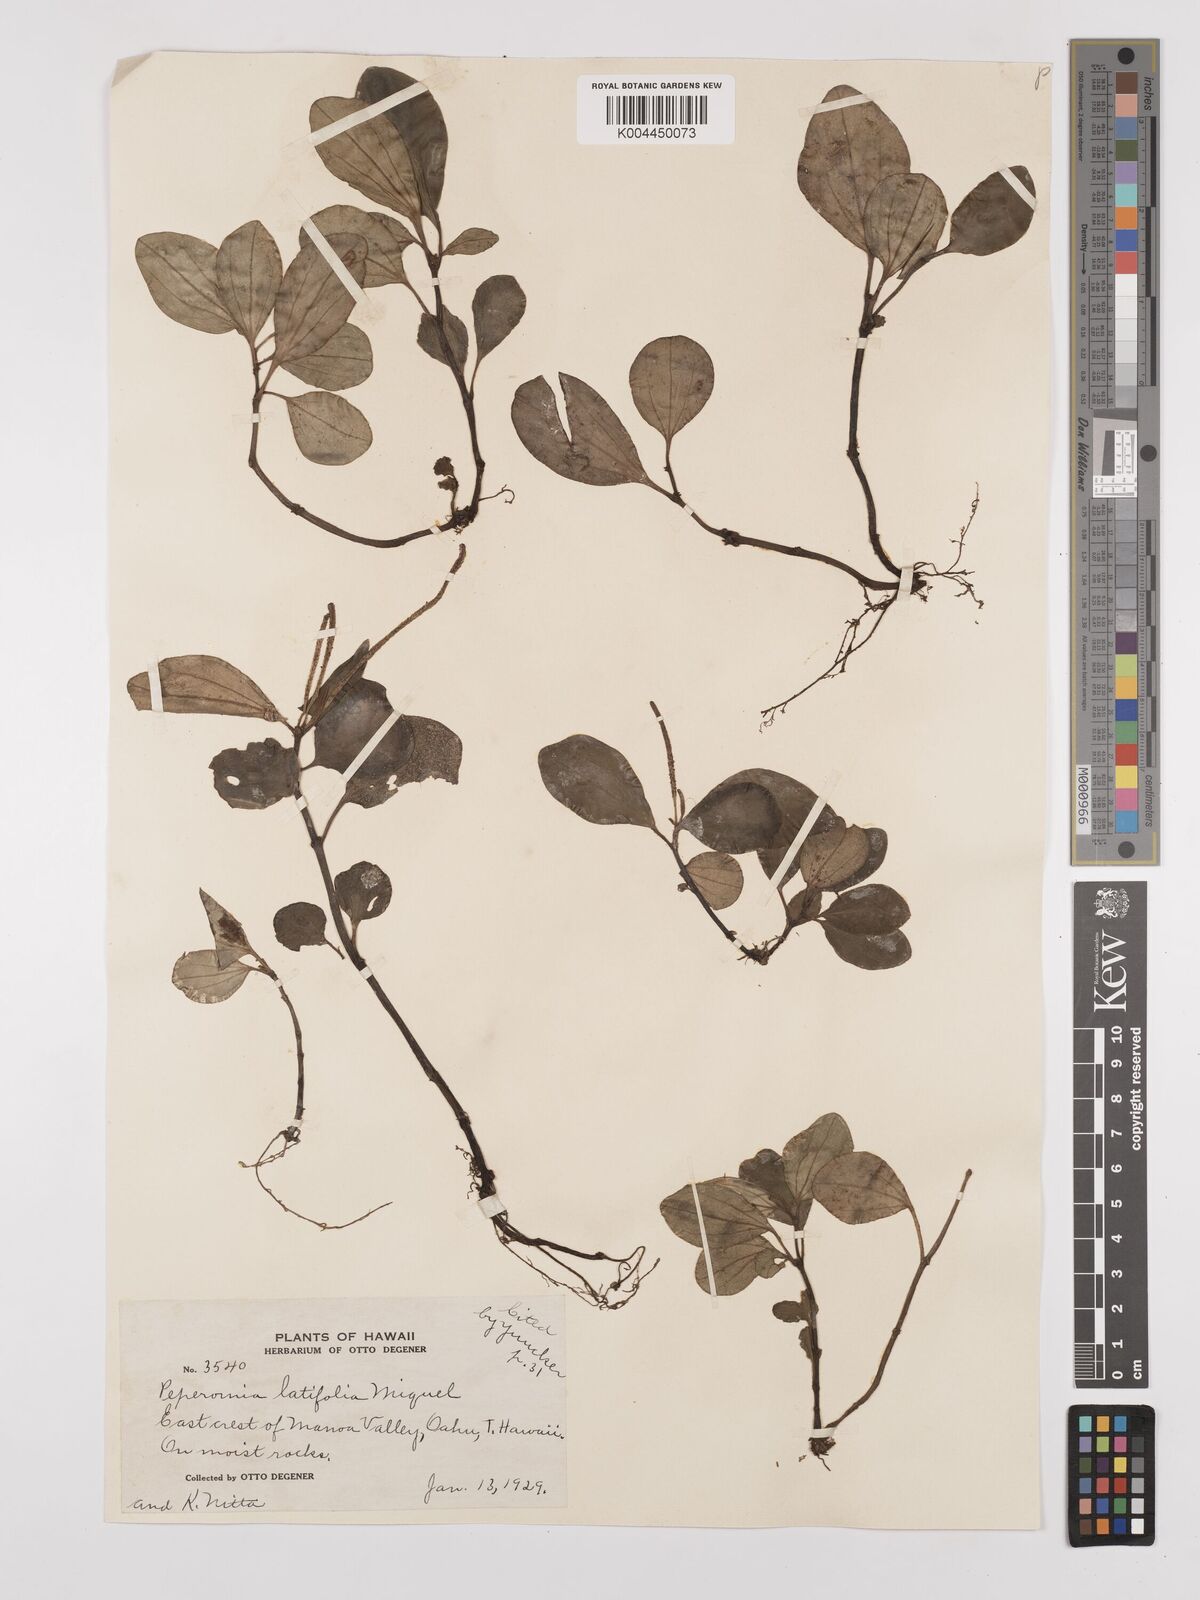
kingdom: Plantae
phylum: Tracheophyta
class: Magnoliopsida
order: Piperales
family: Piperaceae
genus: Peperomia
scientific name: Peperomia latifolia
